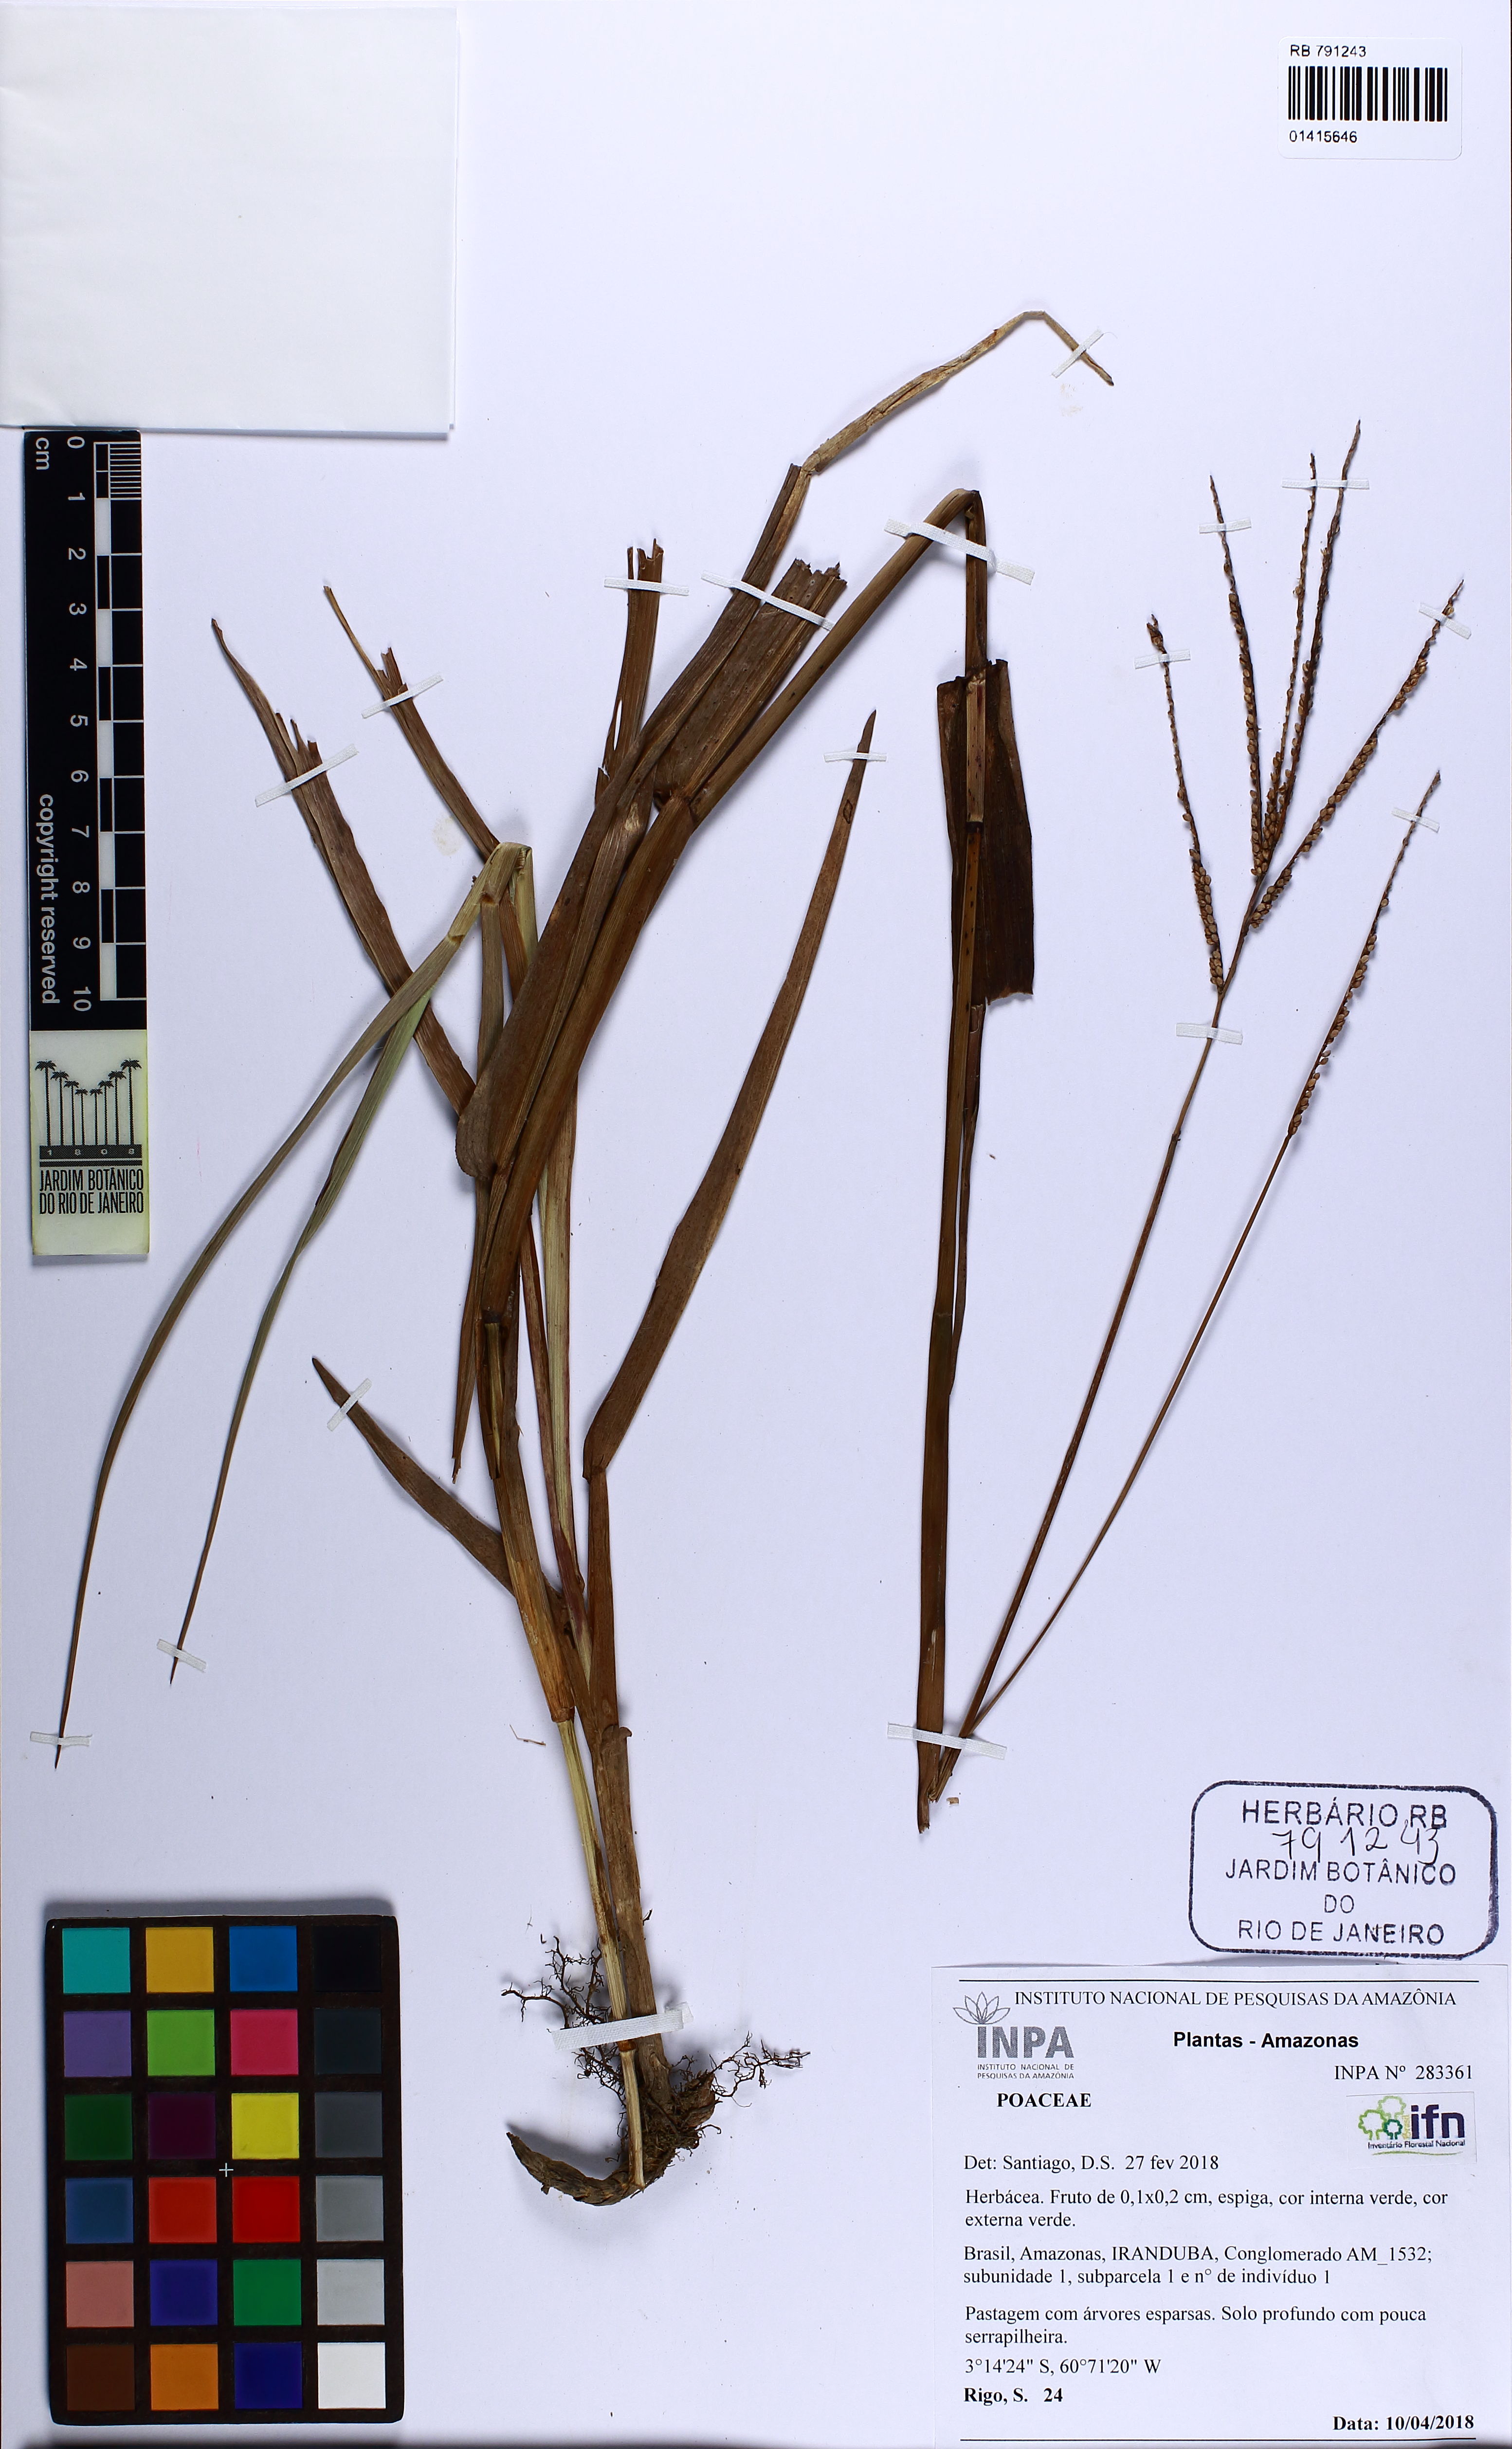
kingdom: Plantae
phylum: Tracheophyta
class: Liliopsida
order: Poales
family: Poaceae
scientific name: Poaceae
